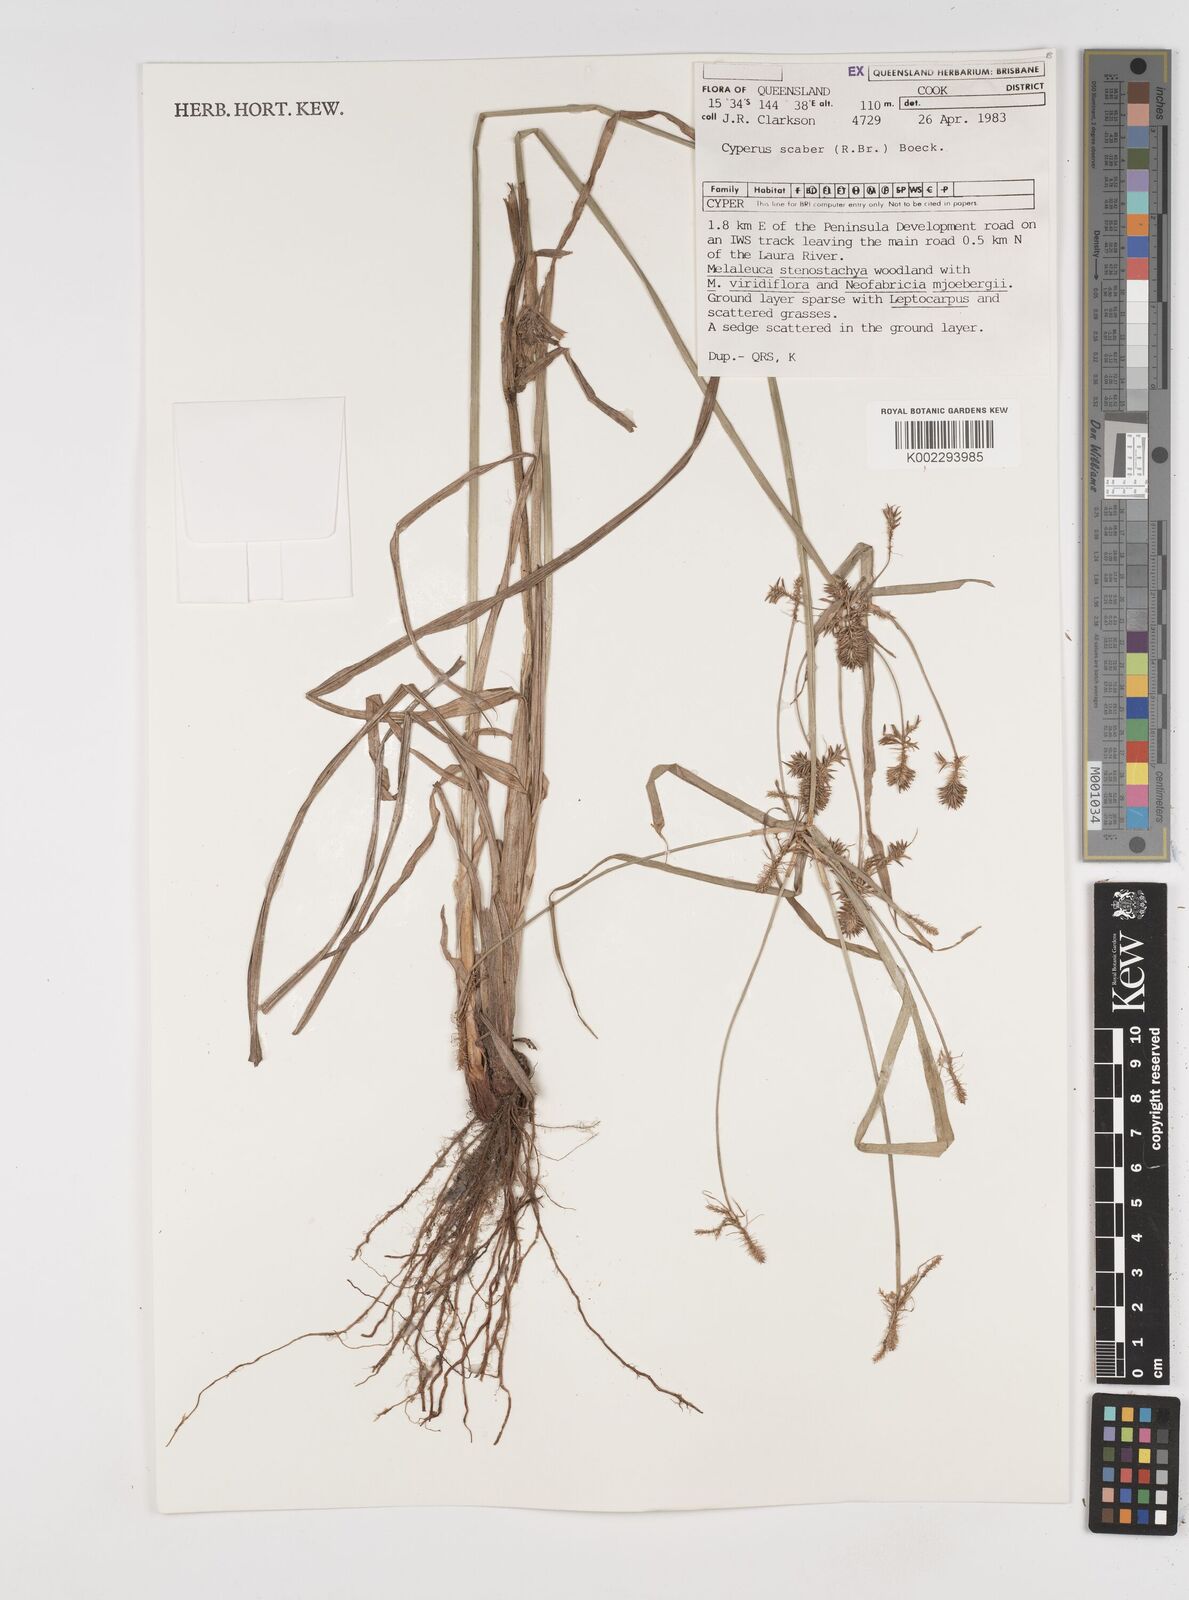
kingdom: Plantae
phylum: Tracheophyta
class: Liliopsida
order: Poales
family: Cyperaceae
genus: Cyperus
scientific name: Cyperus scaber
